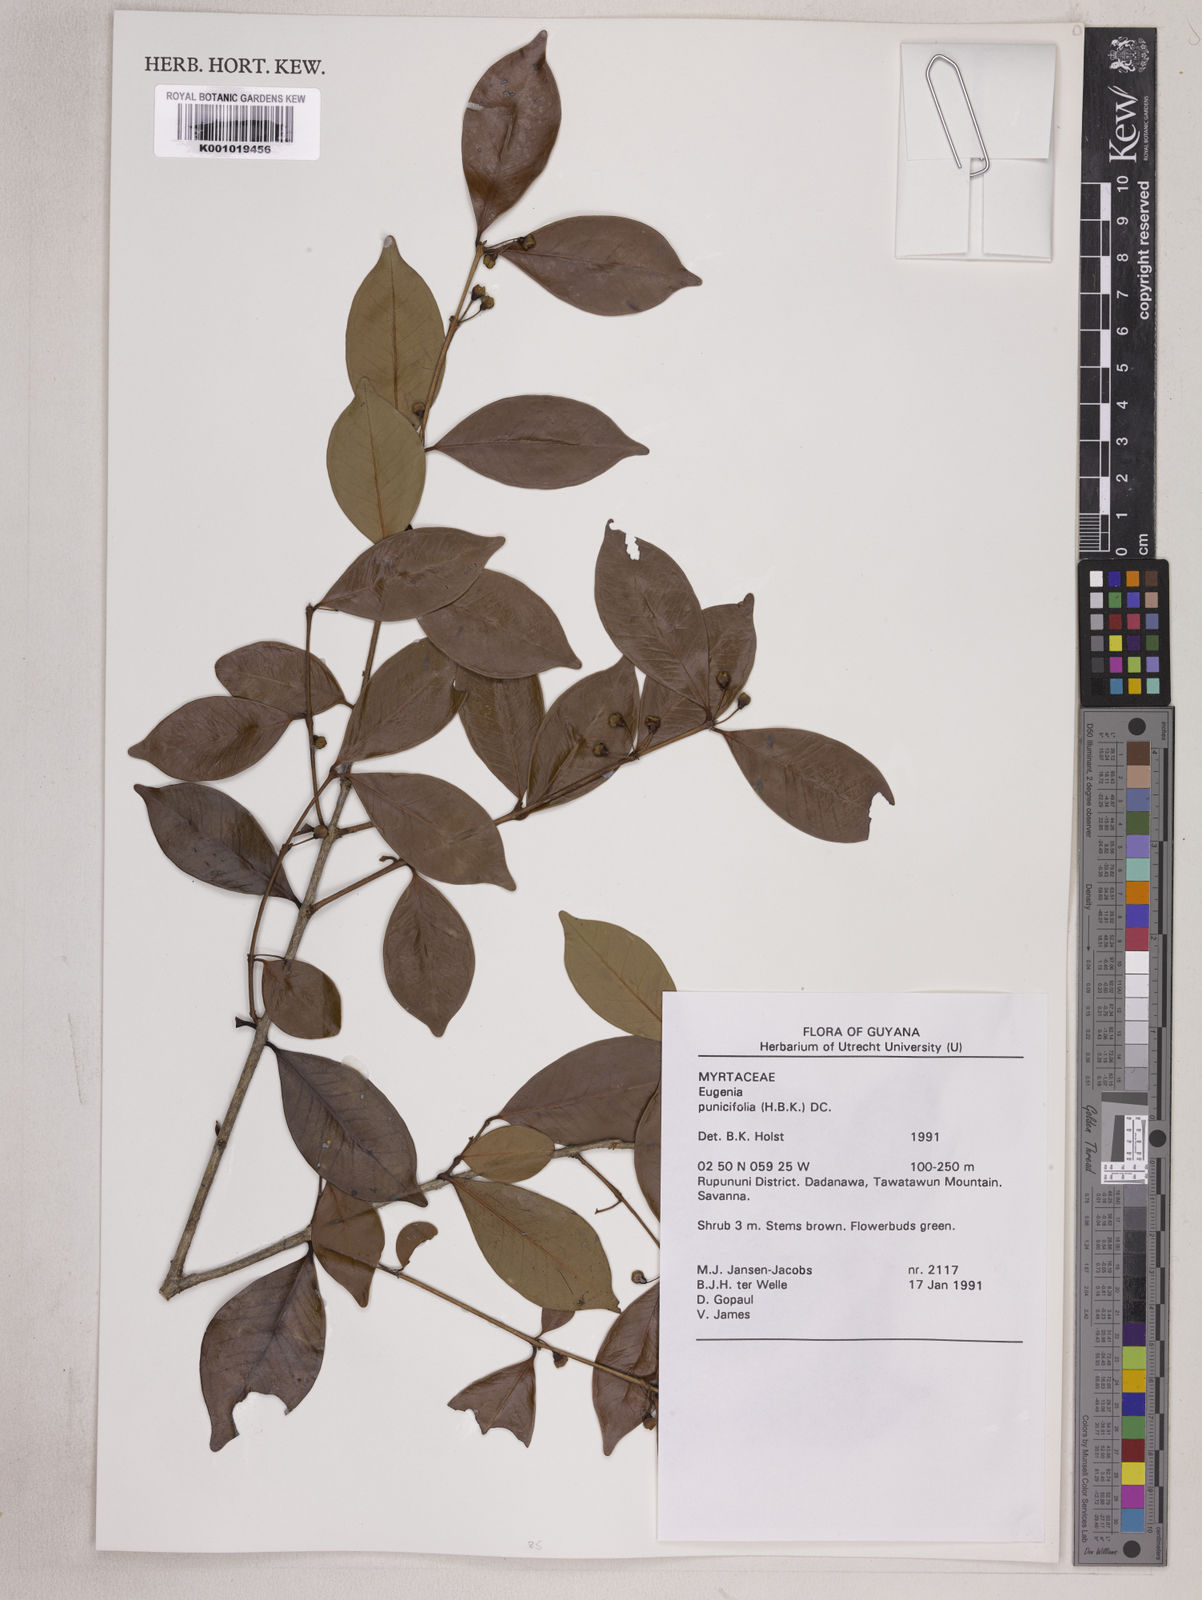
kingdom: Plantae
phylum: Tracheophyta
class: Magnoliopsida
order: Myrtales
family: Myrtaceae
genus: Eugenia
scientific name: Eugenia punicifolia
